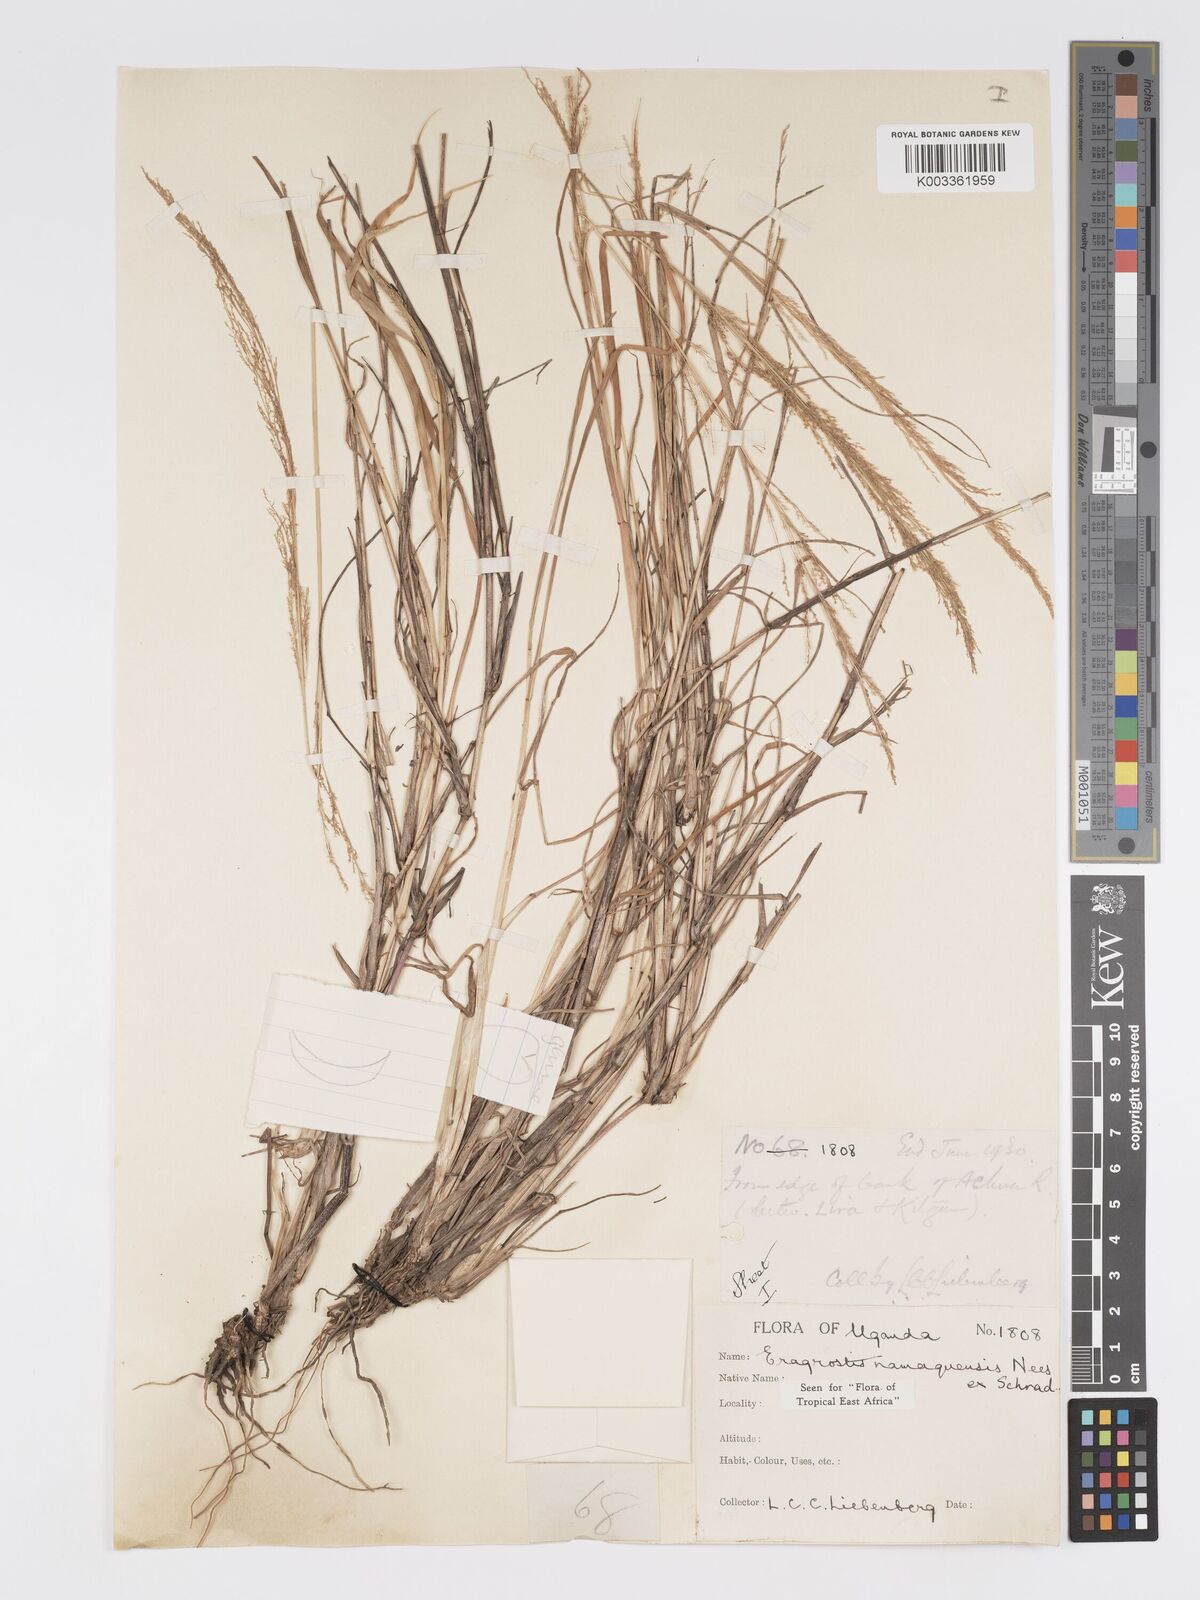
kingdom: Plantae
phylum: Tracheophyta
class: Liliopsida
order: Poales
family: Poaceae
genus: Eragrostis
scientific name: Eragrostis japonica
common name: Pond lovegrass
